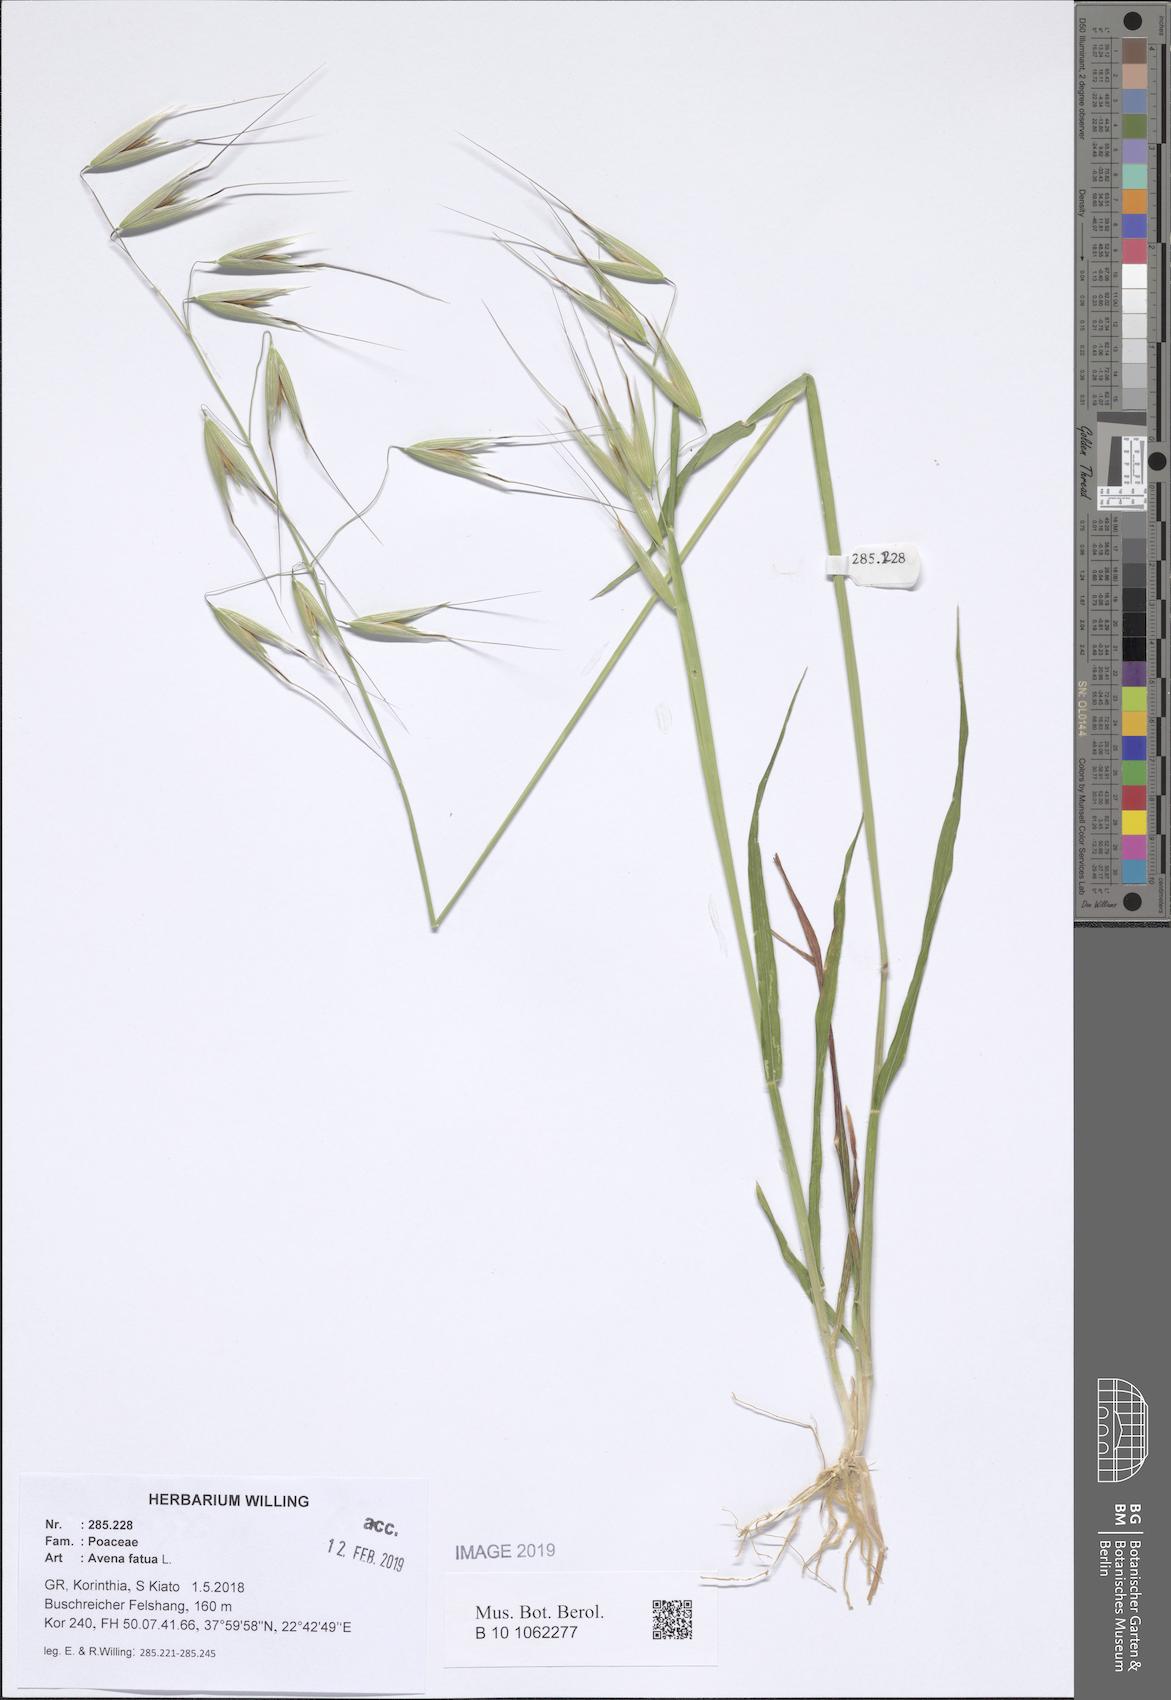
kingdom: Plantae
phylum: Tracheophyta
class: Liliopsida
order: Poales
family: Poaceae
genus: Avena
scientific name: Avena fatua
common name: Wild oat
